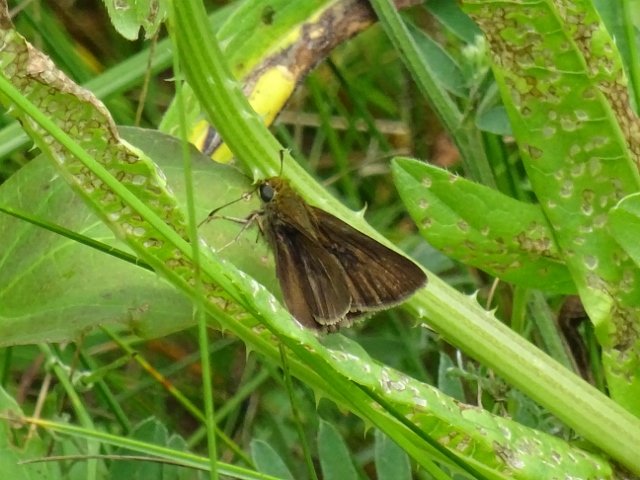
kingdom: Animalia
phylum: Arthropoda
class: Insecta
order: Lepidoptera
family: Hesperiidae
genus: Euphyes
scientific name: Euphyes vestris
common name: Dun Skipper
